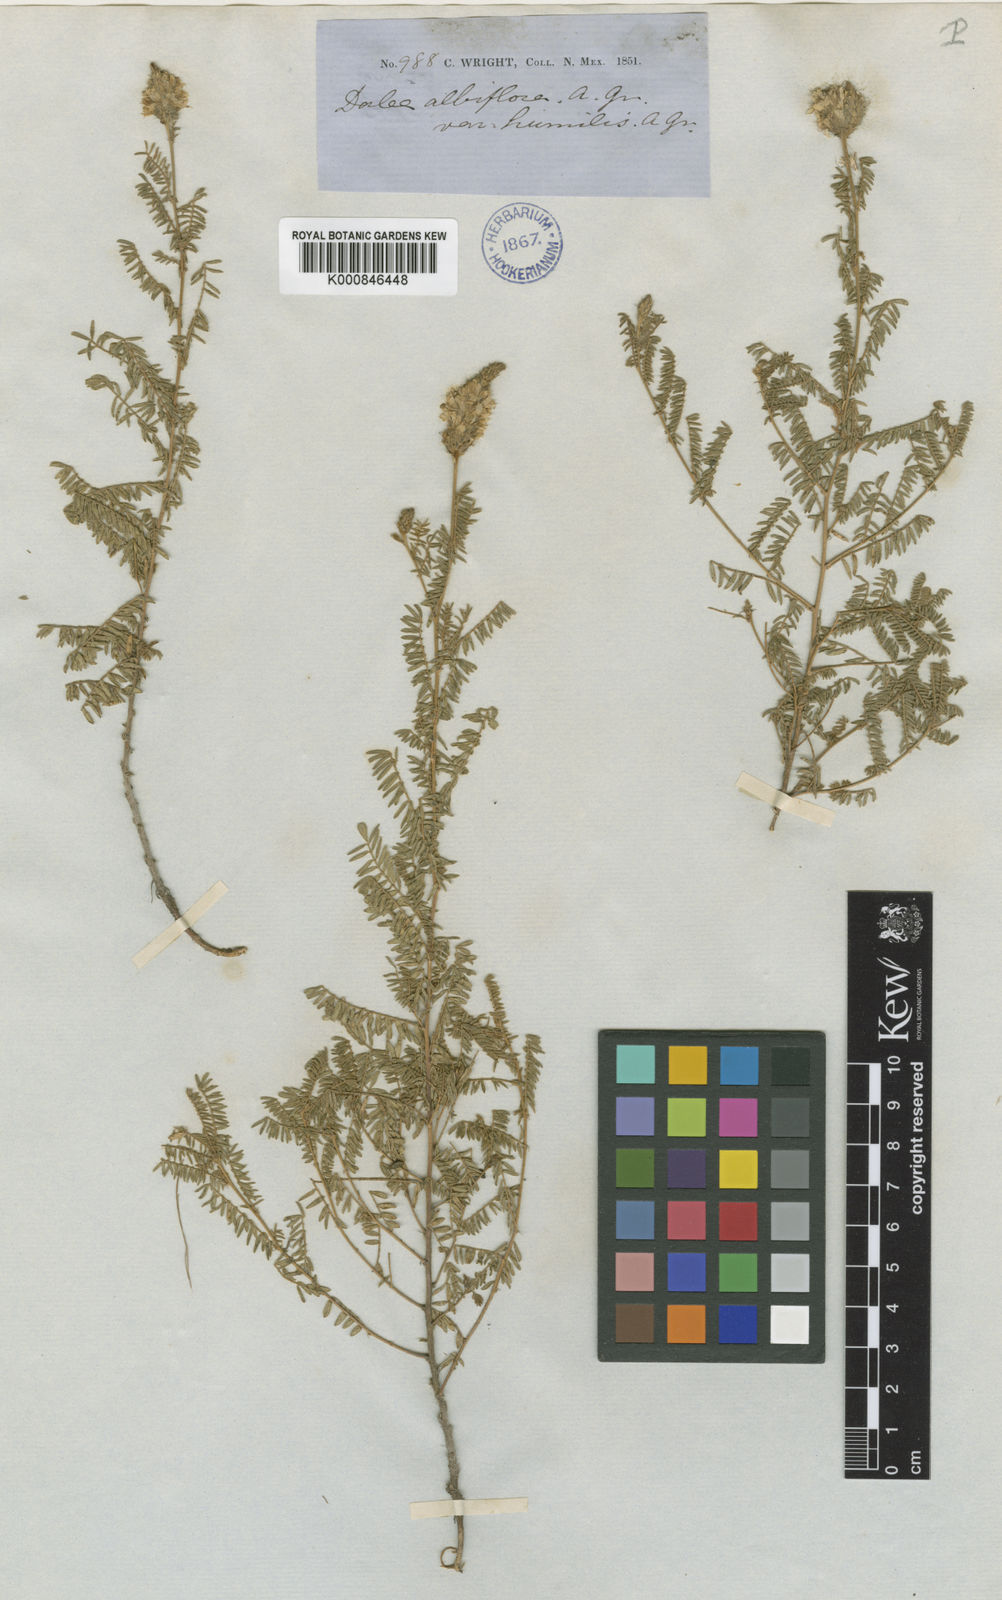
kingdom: Plantae
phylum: Tracheophyta
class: Magnoliopsida
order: Fabales
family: Fabaceae
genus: Dalea
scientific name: Dalea albiflora
